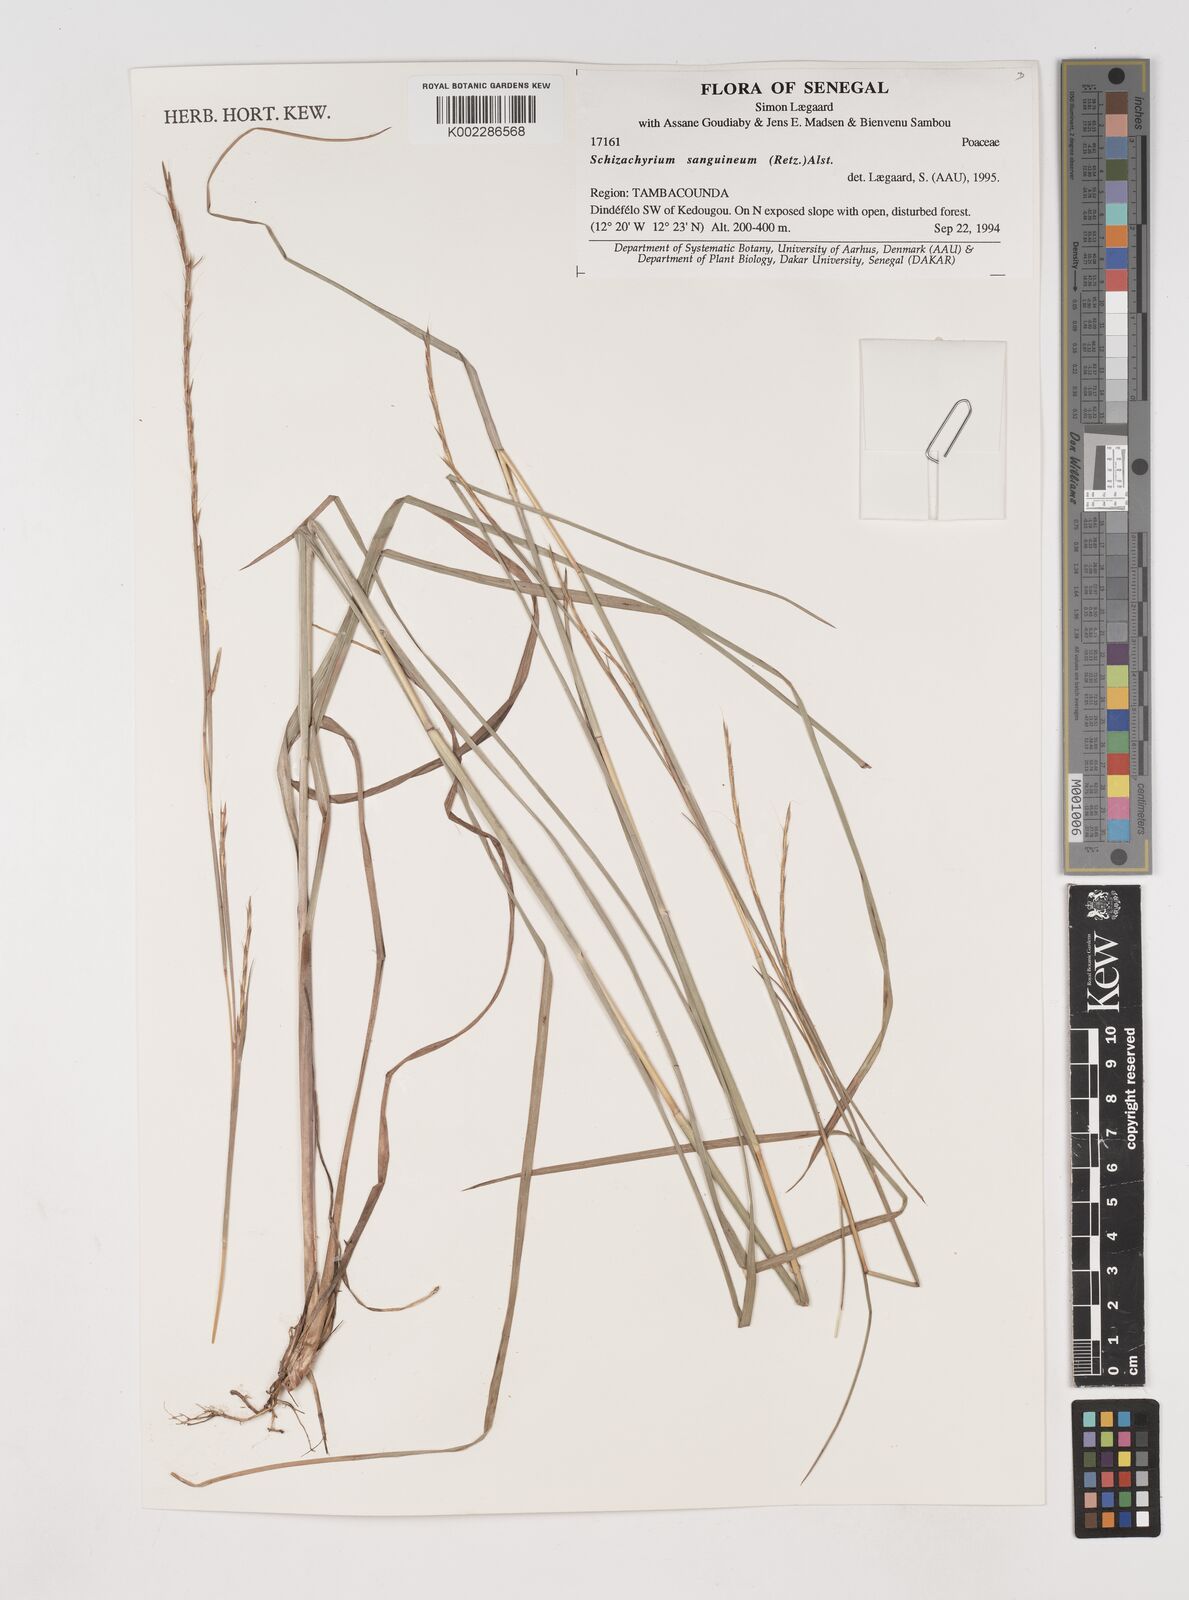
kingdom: Plantae
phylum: Tracheophyta
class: Liliopsida
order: Poales
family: Poaceae
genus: Schizachyrium
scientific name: Schizachyrium sanguineum
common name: Crimson bluestem
